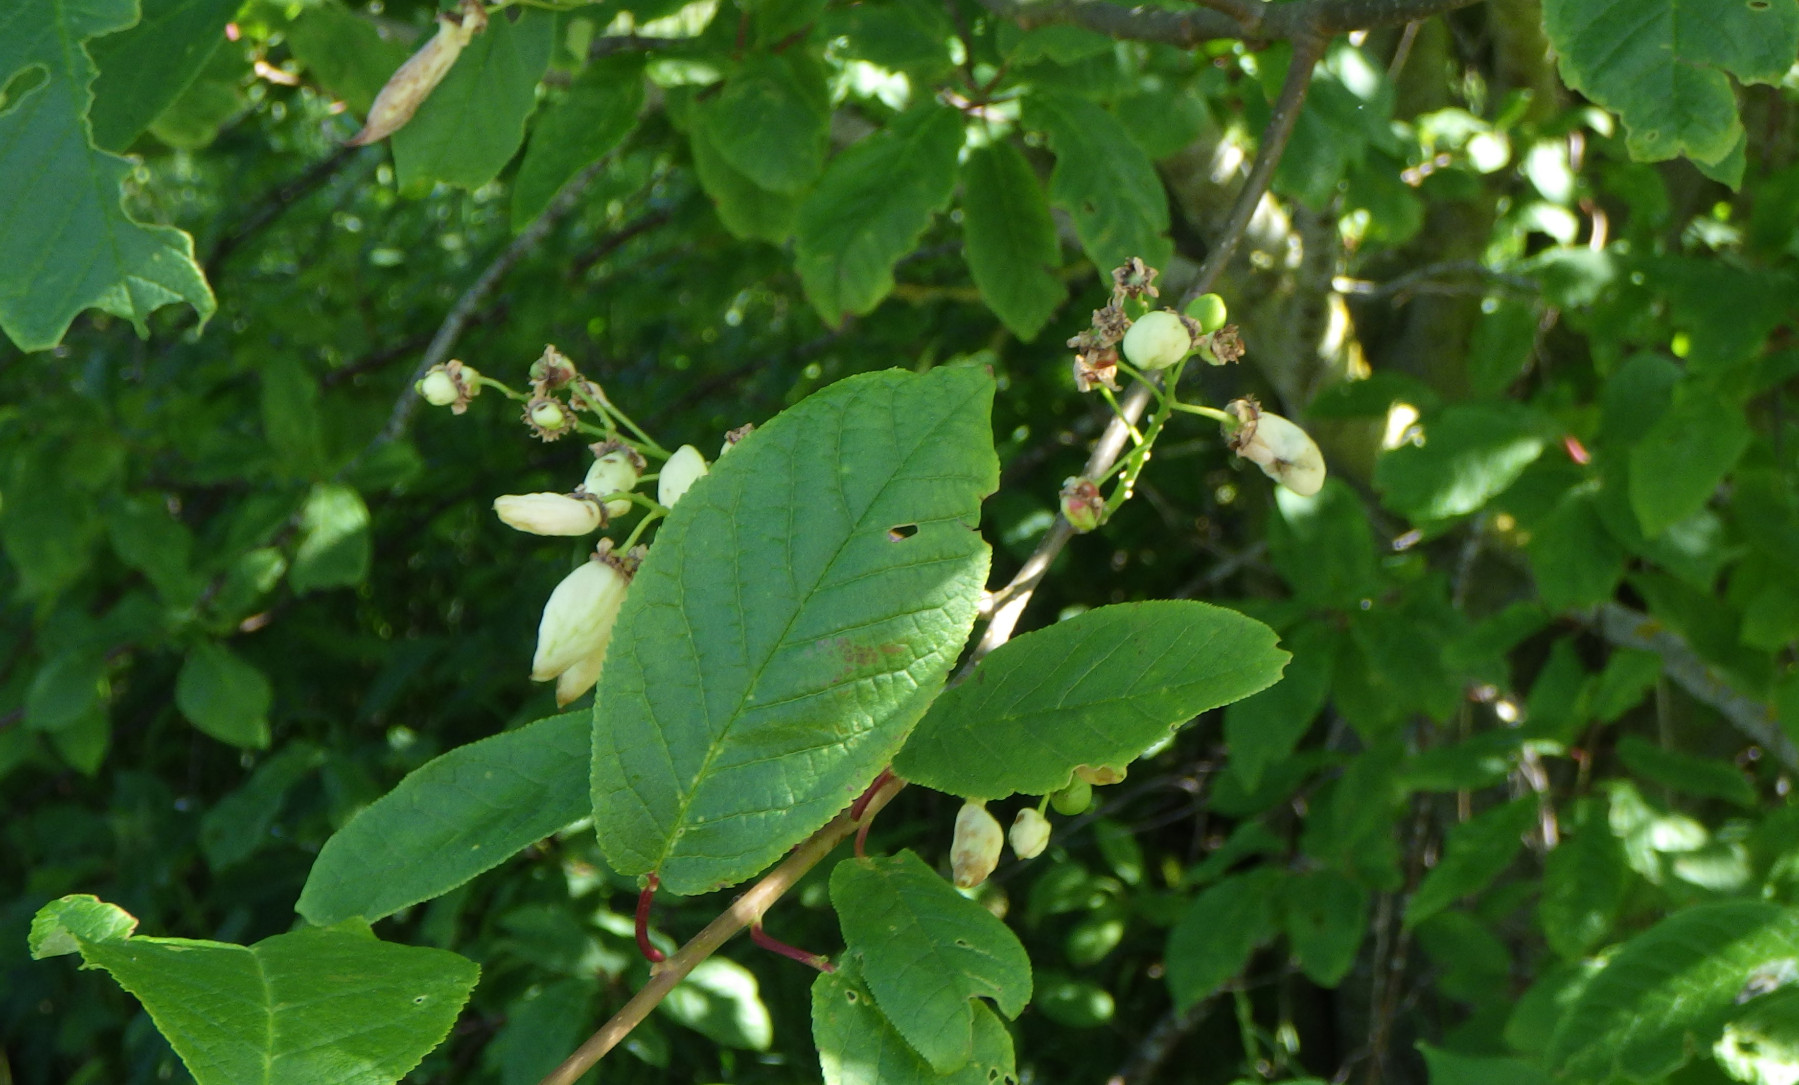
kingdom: Fungi
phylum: Ascomycota
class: Taphrinomycetes
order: Taphrinales
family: Taphrinaceae
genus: Taphrina
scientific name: Taphrina padi
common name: Bird cherry pocket
